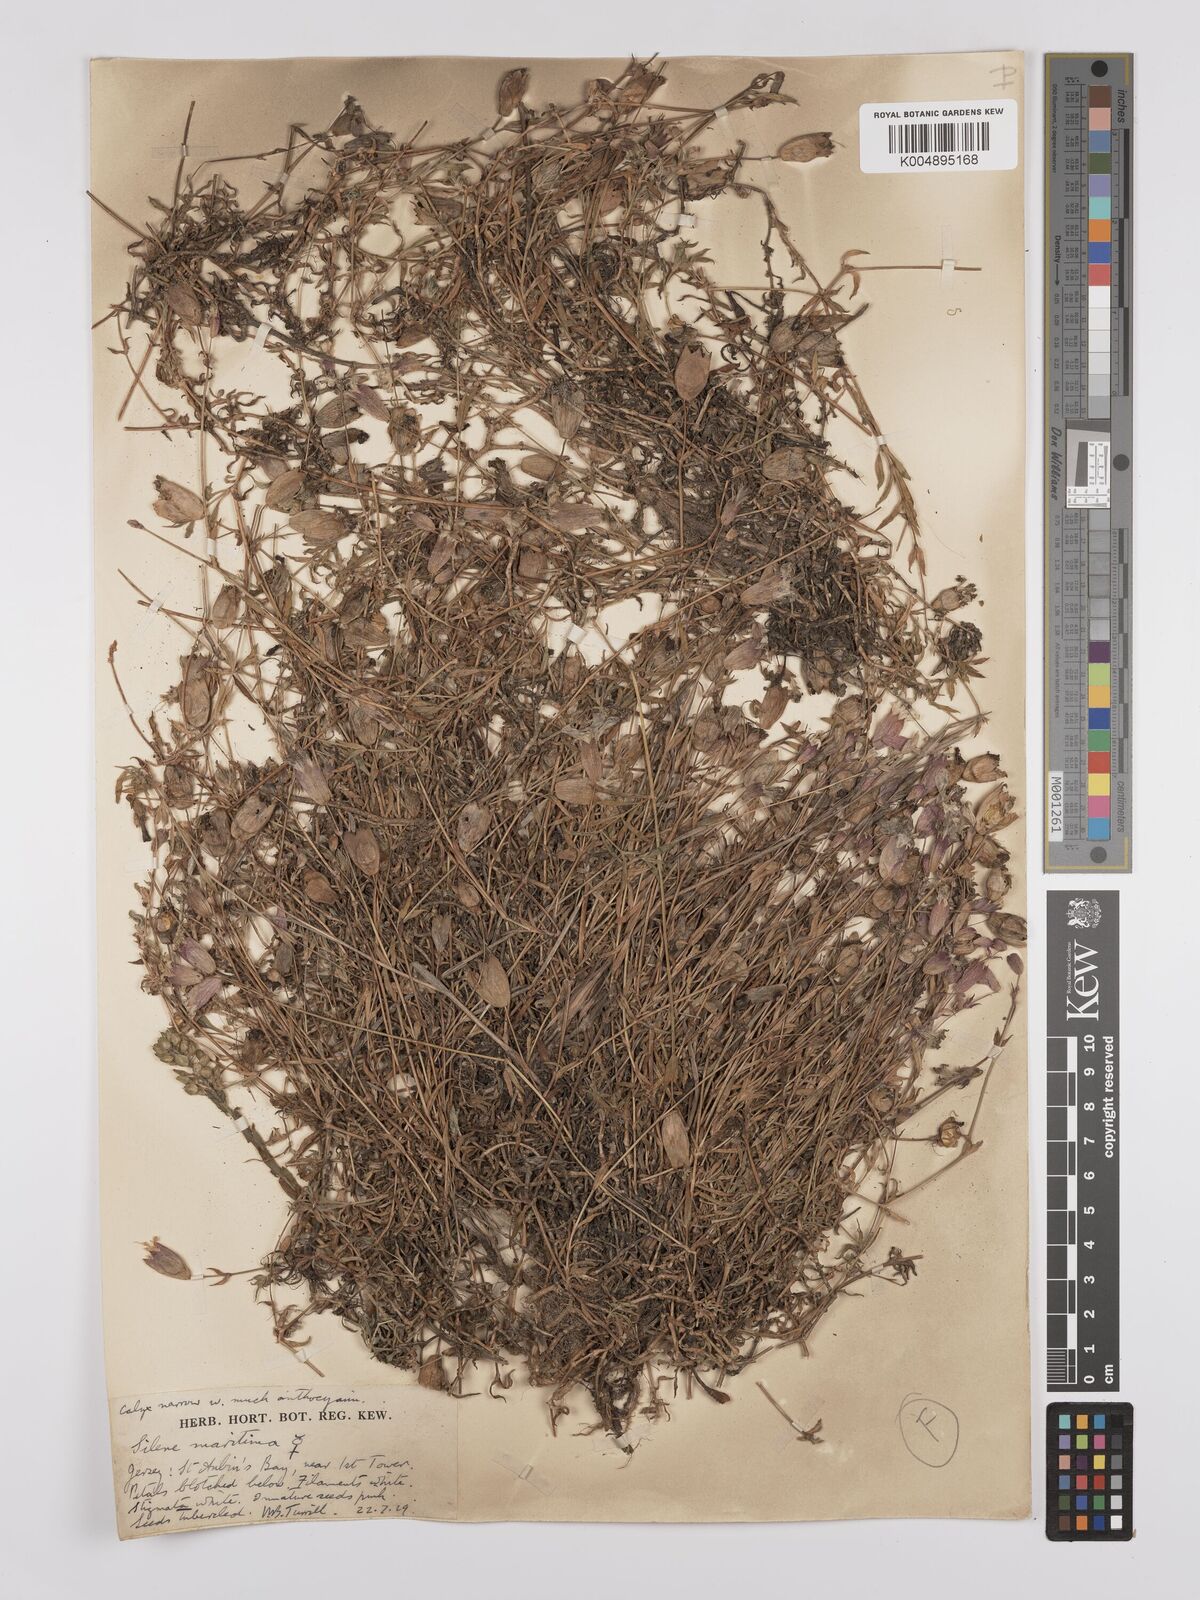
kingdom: Plantae
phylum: Tracheophyta
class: Magnoliopsida
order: Caryophyllales
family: Caryophyllaceae
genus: Silene
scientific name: Silene uniflora
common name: Sea campion
